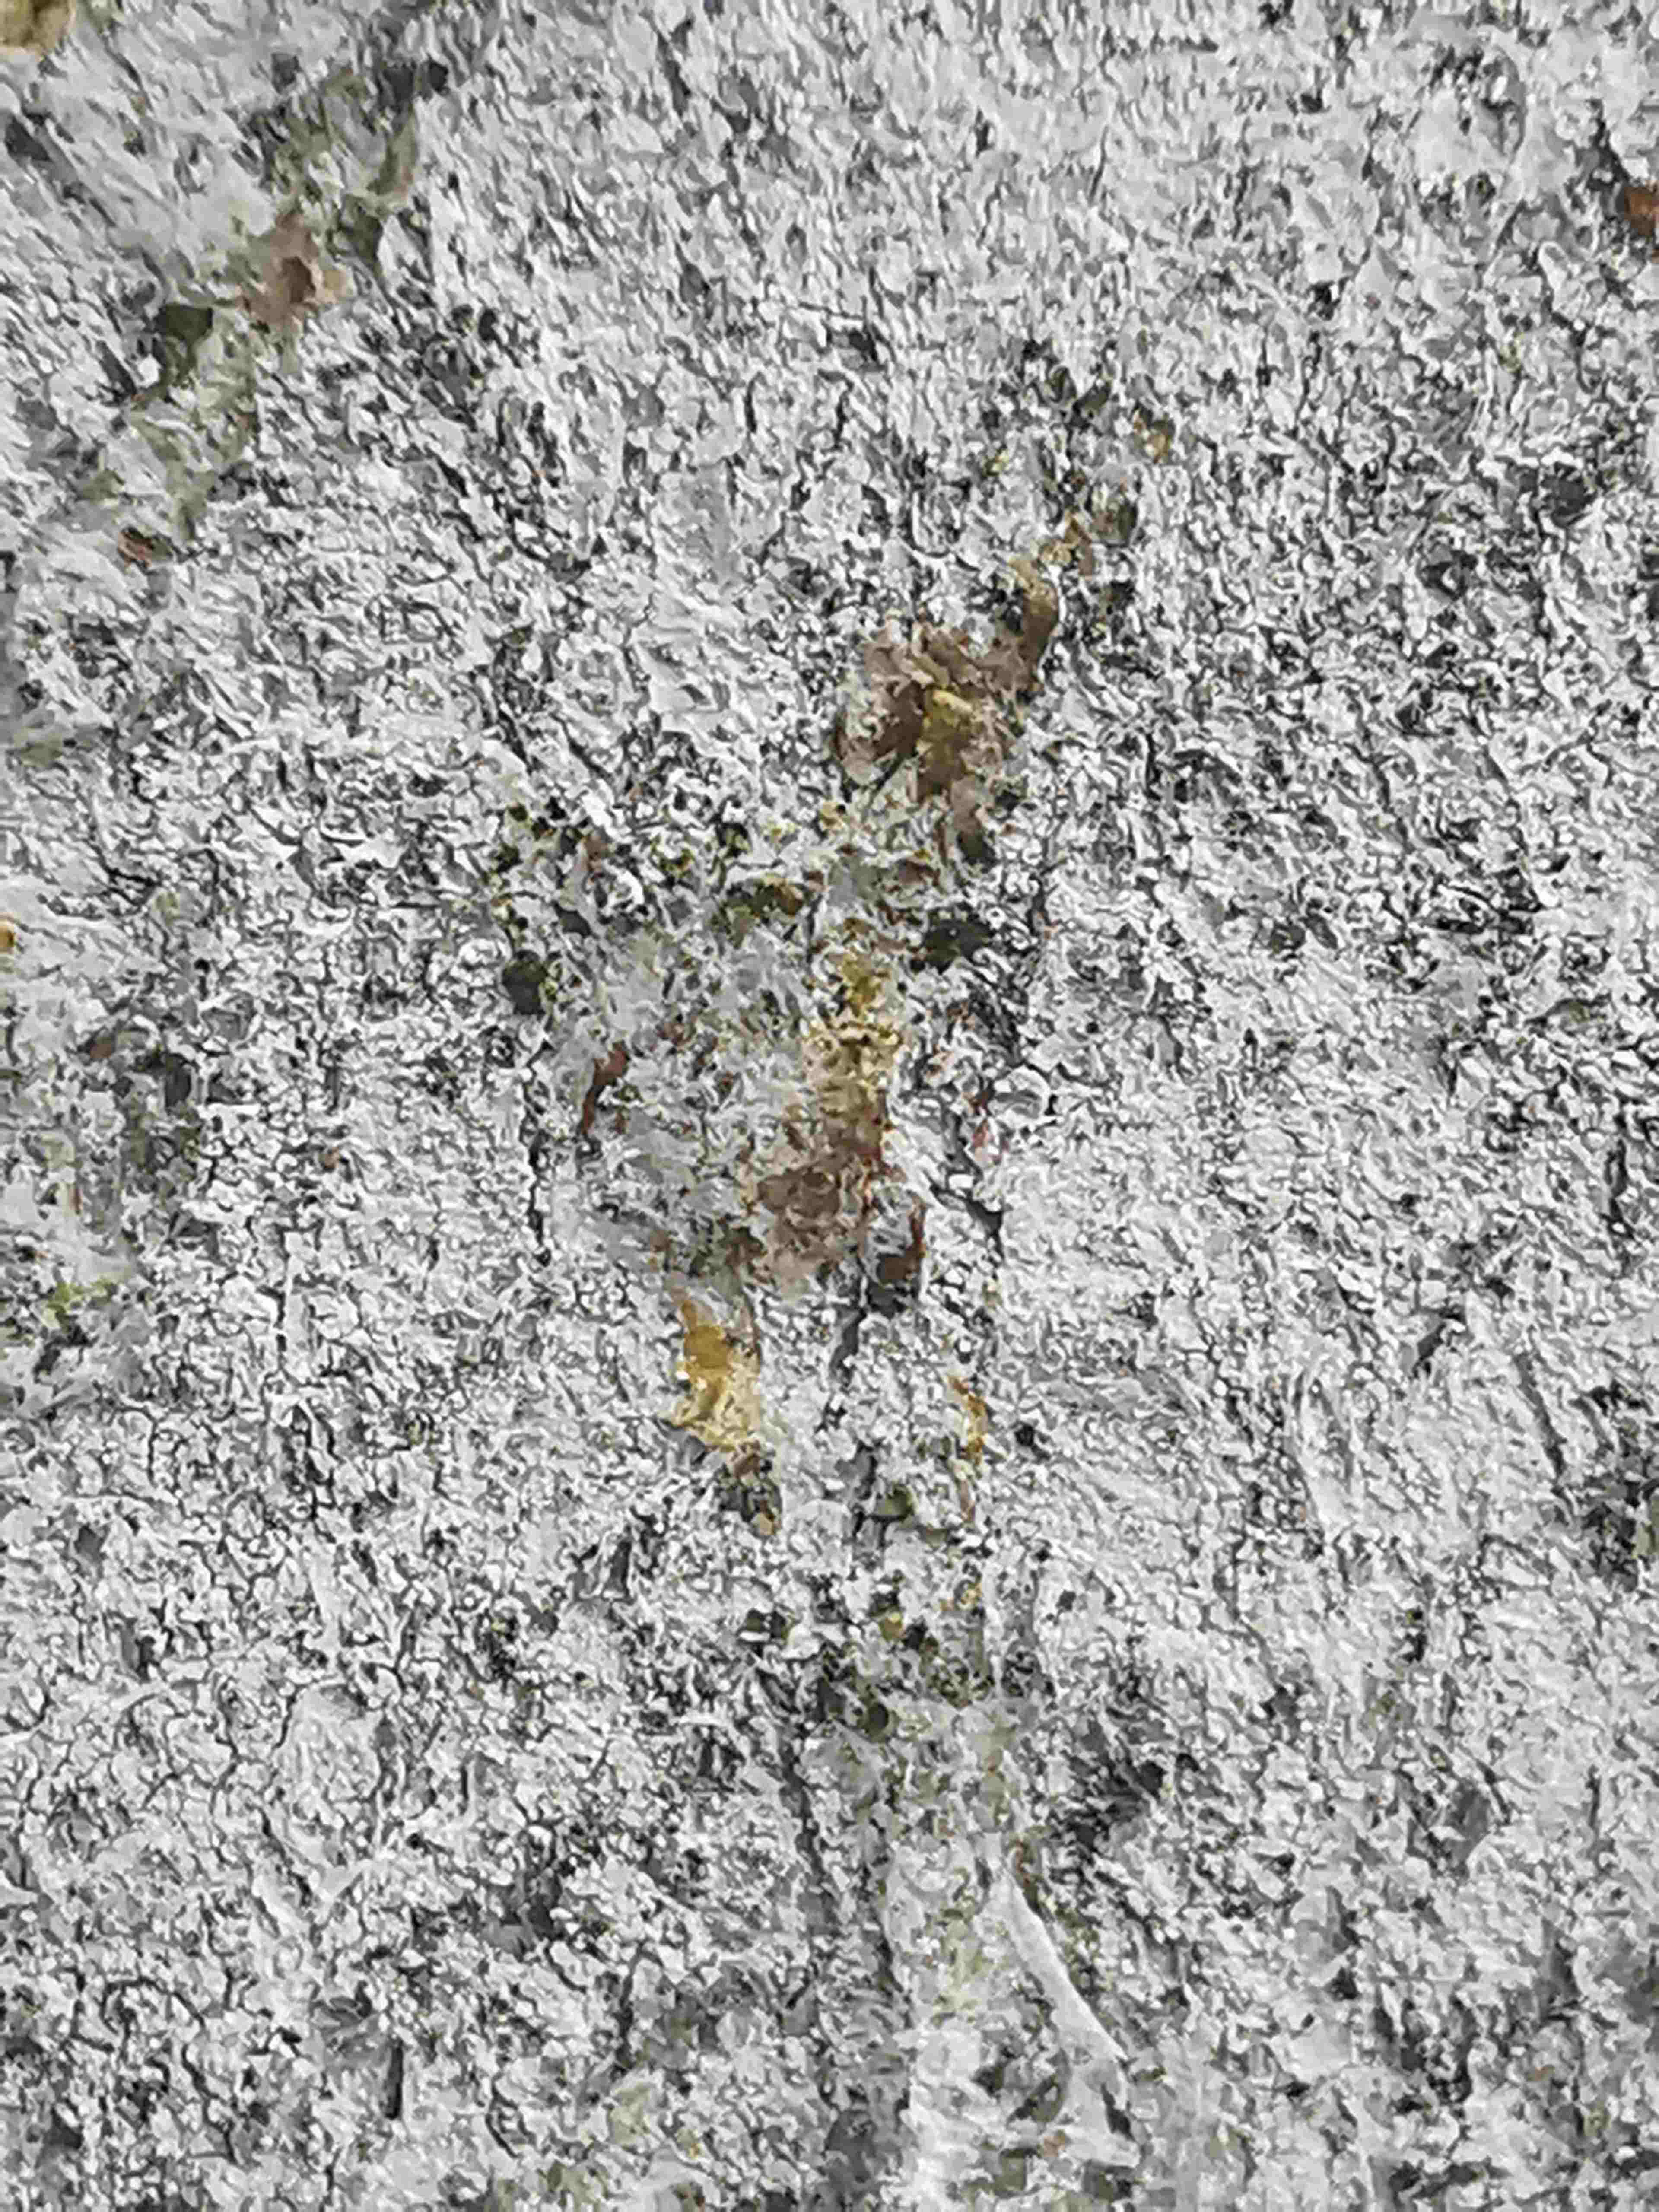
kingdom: Fungi
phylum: Ascomycota
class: Lecanoromycetes
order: Ostropales
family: Phlyctidaceae
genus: Phlyctis
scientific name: Phlyctis argena
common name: almindelig sølvlav
